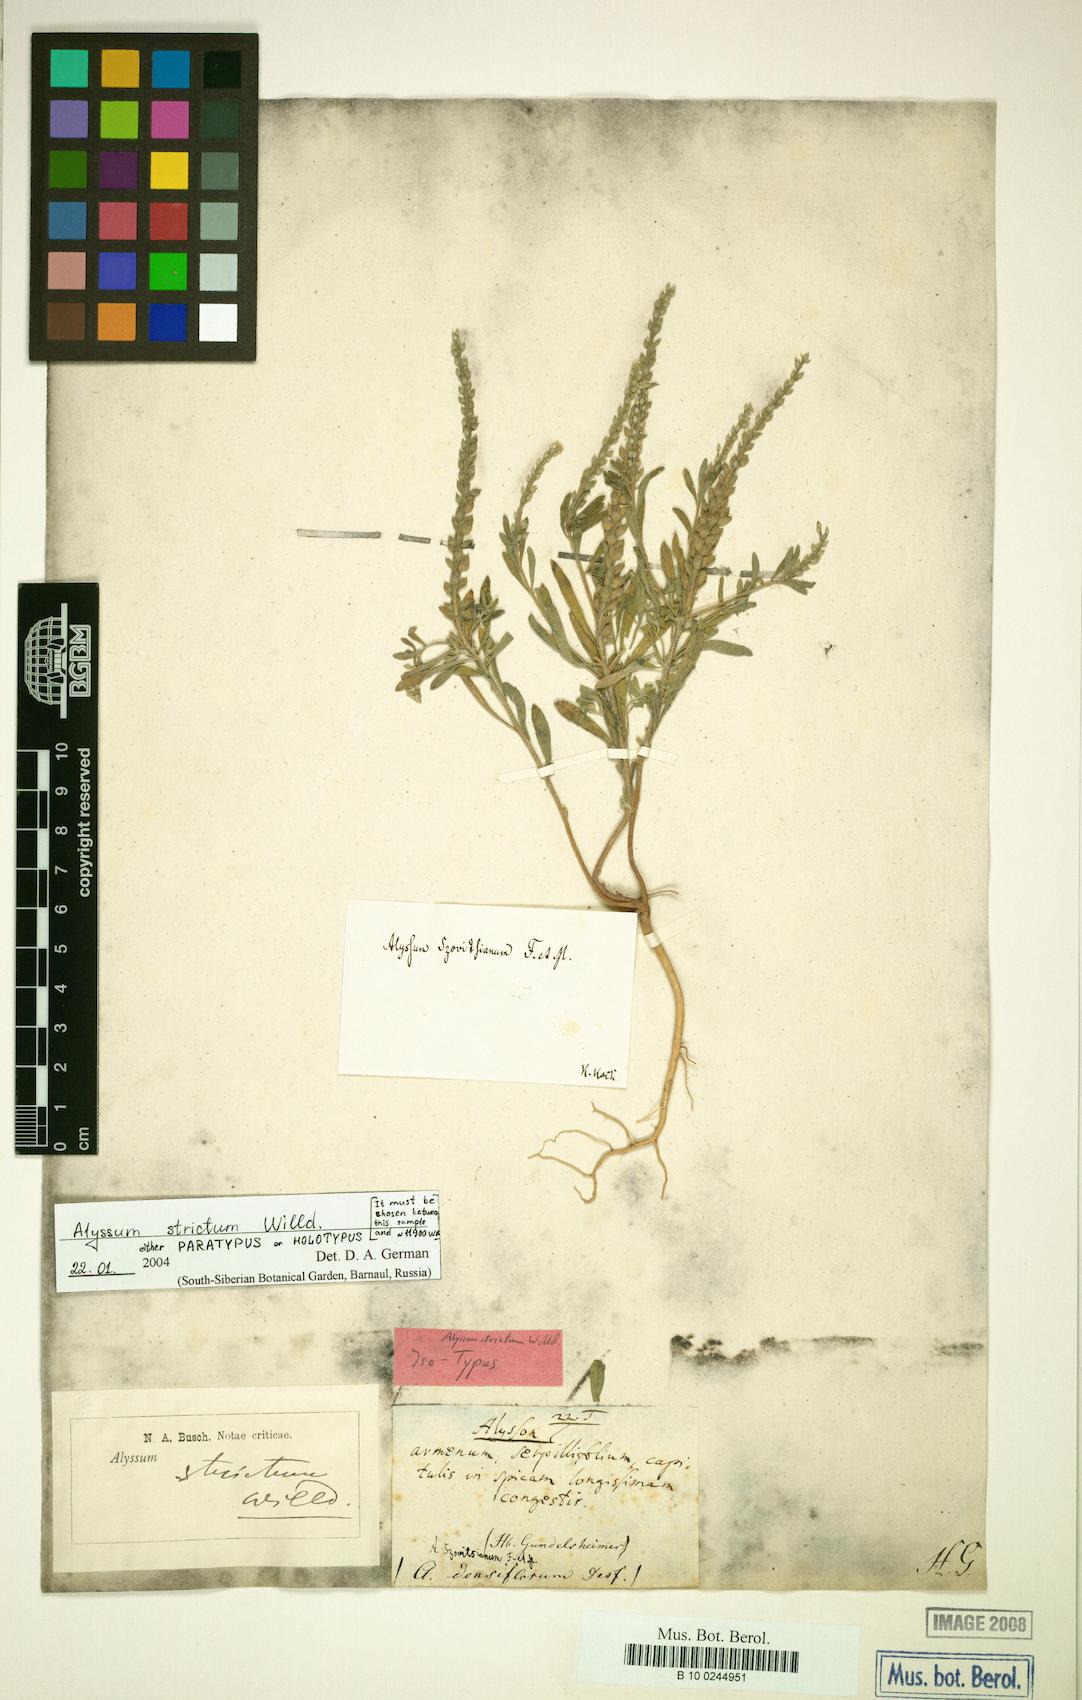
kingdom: Plantae
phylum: Tracheophyta
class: Magnoliopsida
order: Brassicales
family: Brassicaceae
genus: Alyssum
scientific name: Alyssum strictum
